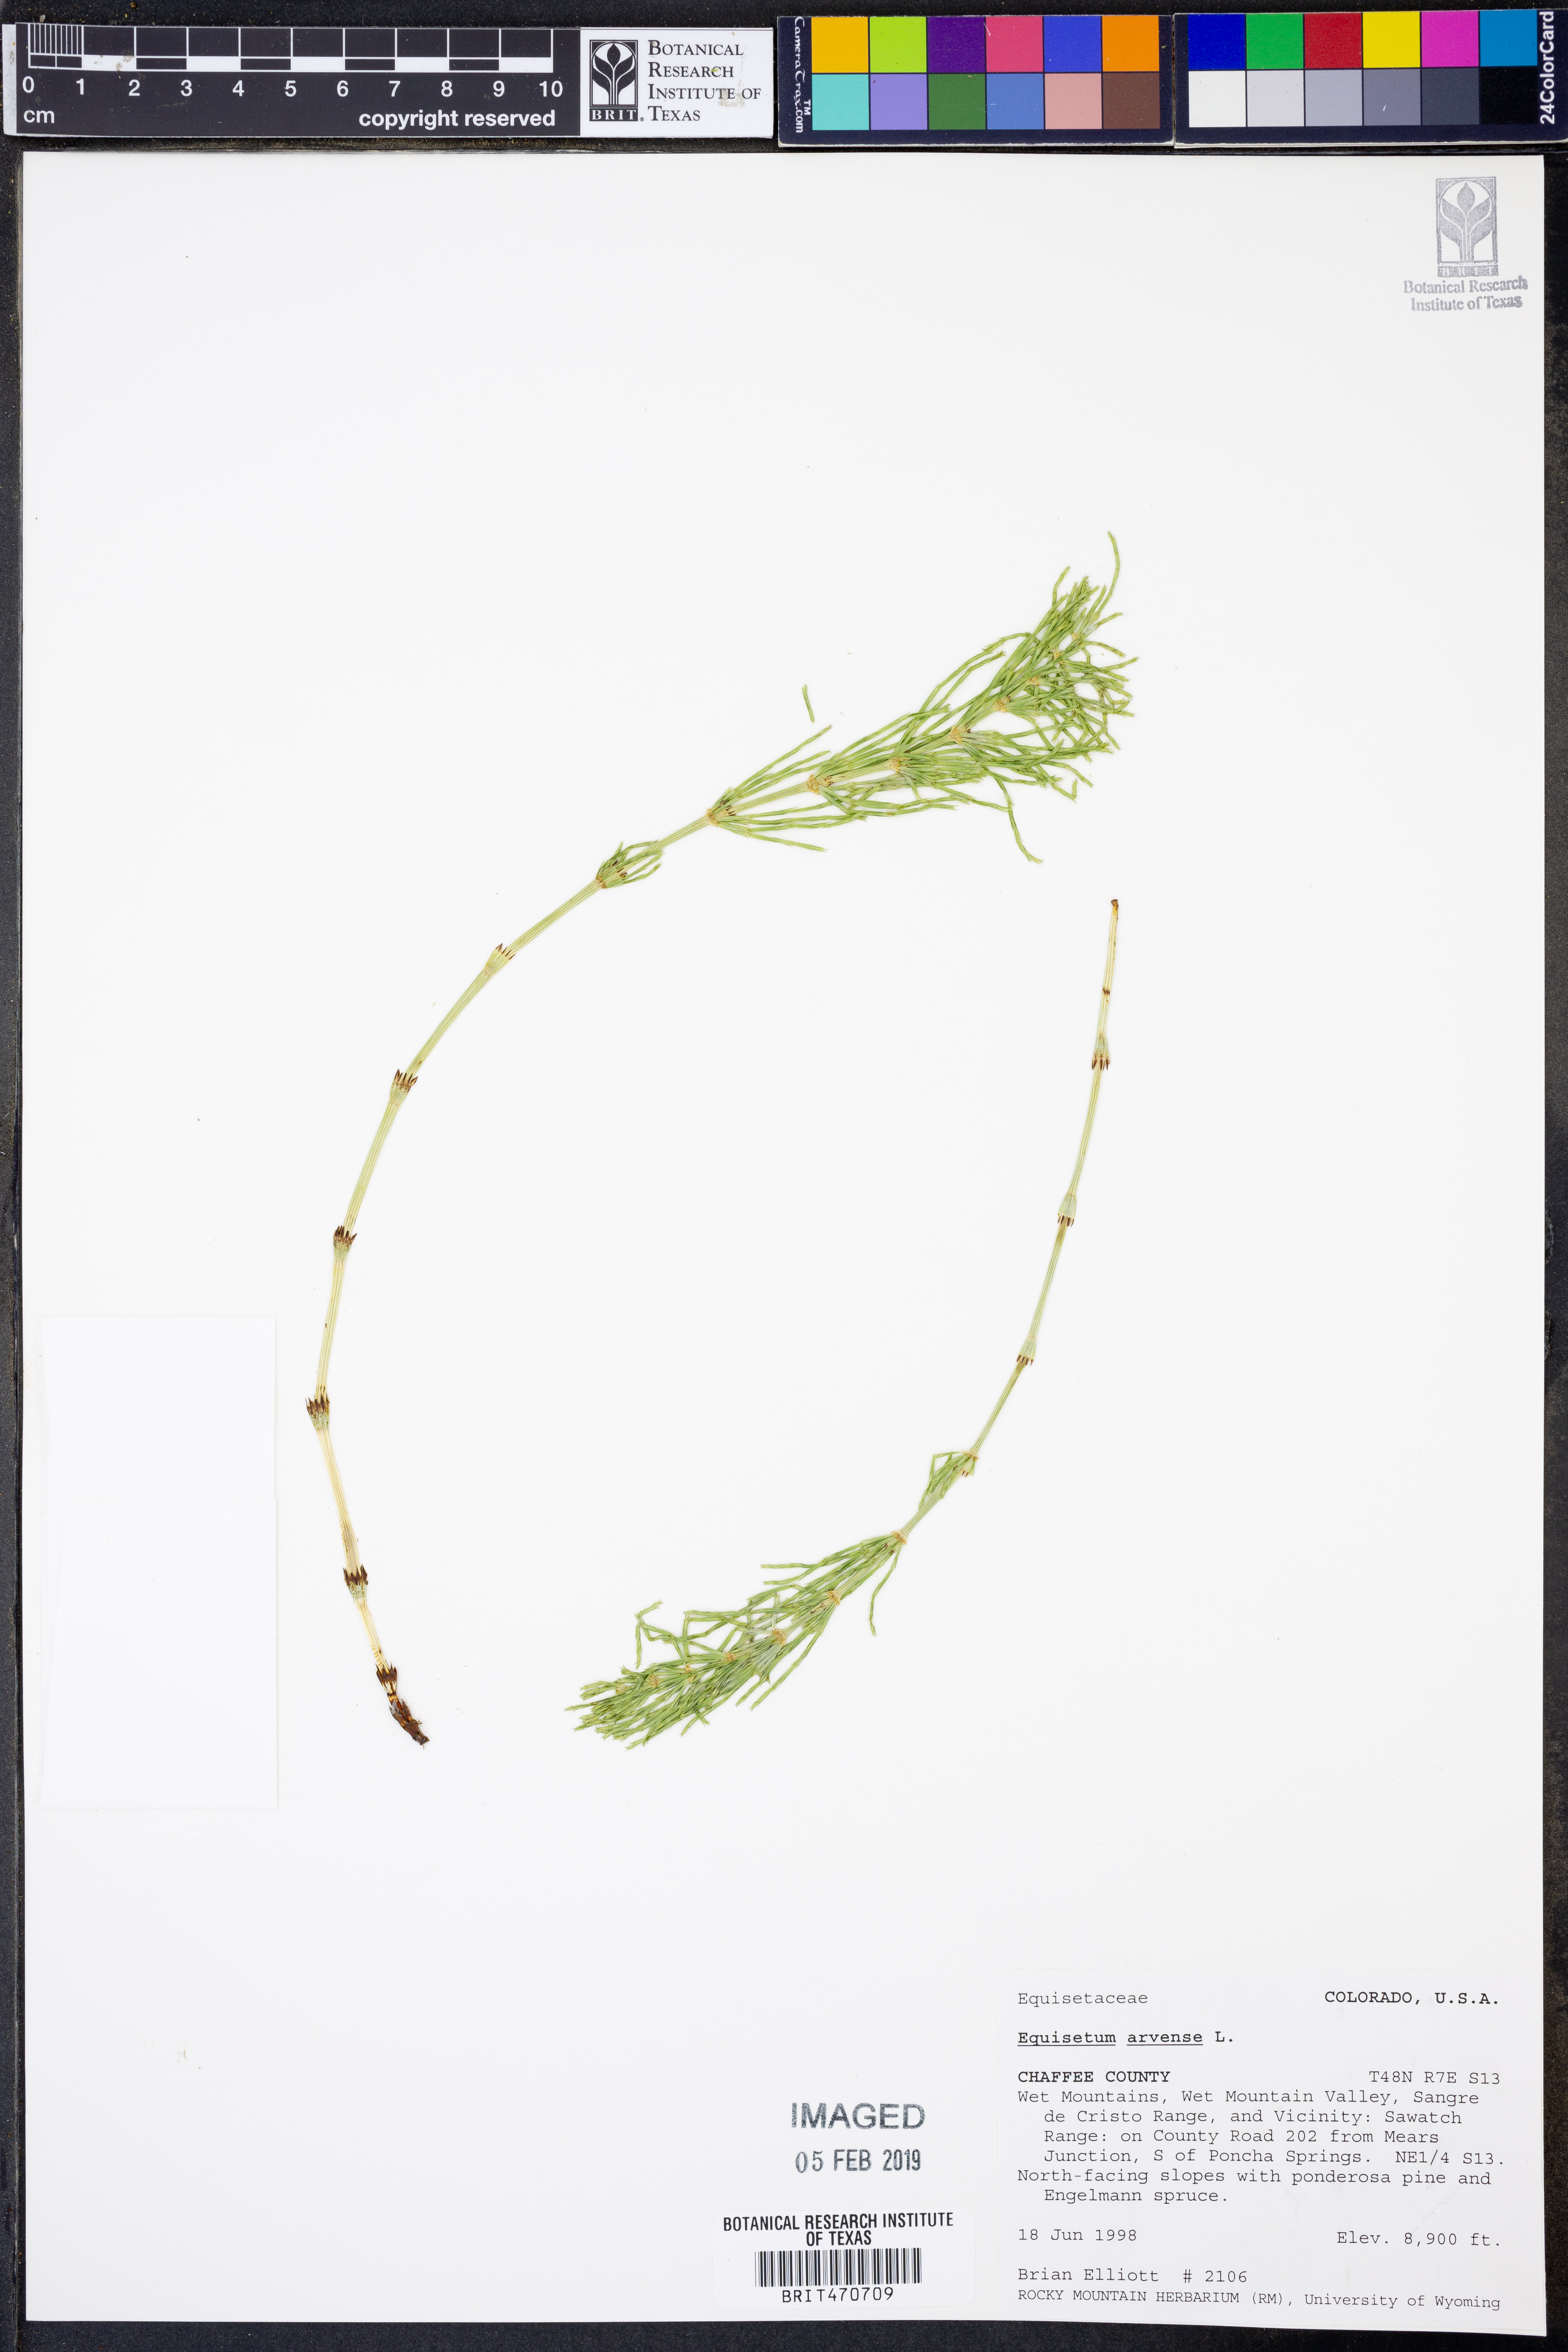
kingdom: Plantae
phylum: Tracheophyta
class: Polypodiopsida
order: Equisetales
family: Equisetaceae
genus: Equisetum
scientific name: Equisetum arvense
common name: Field horsetail
